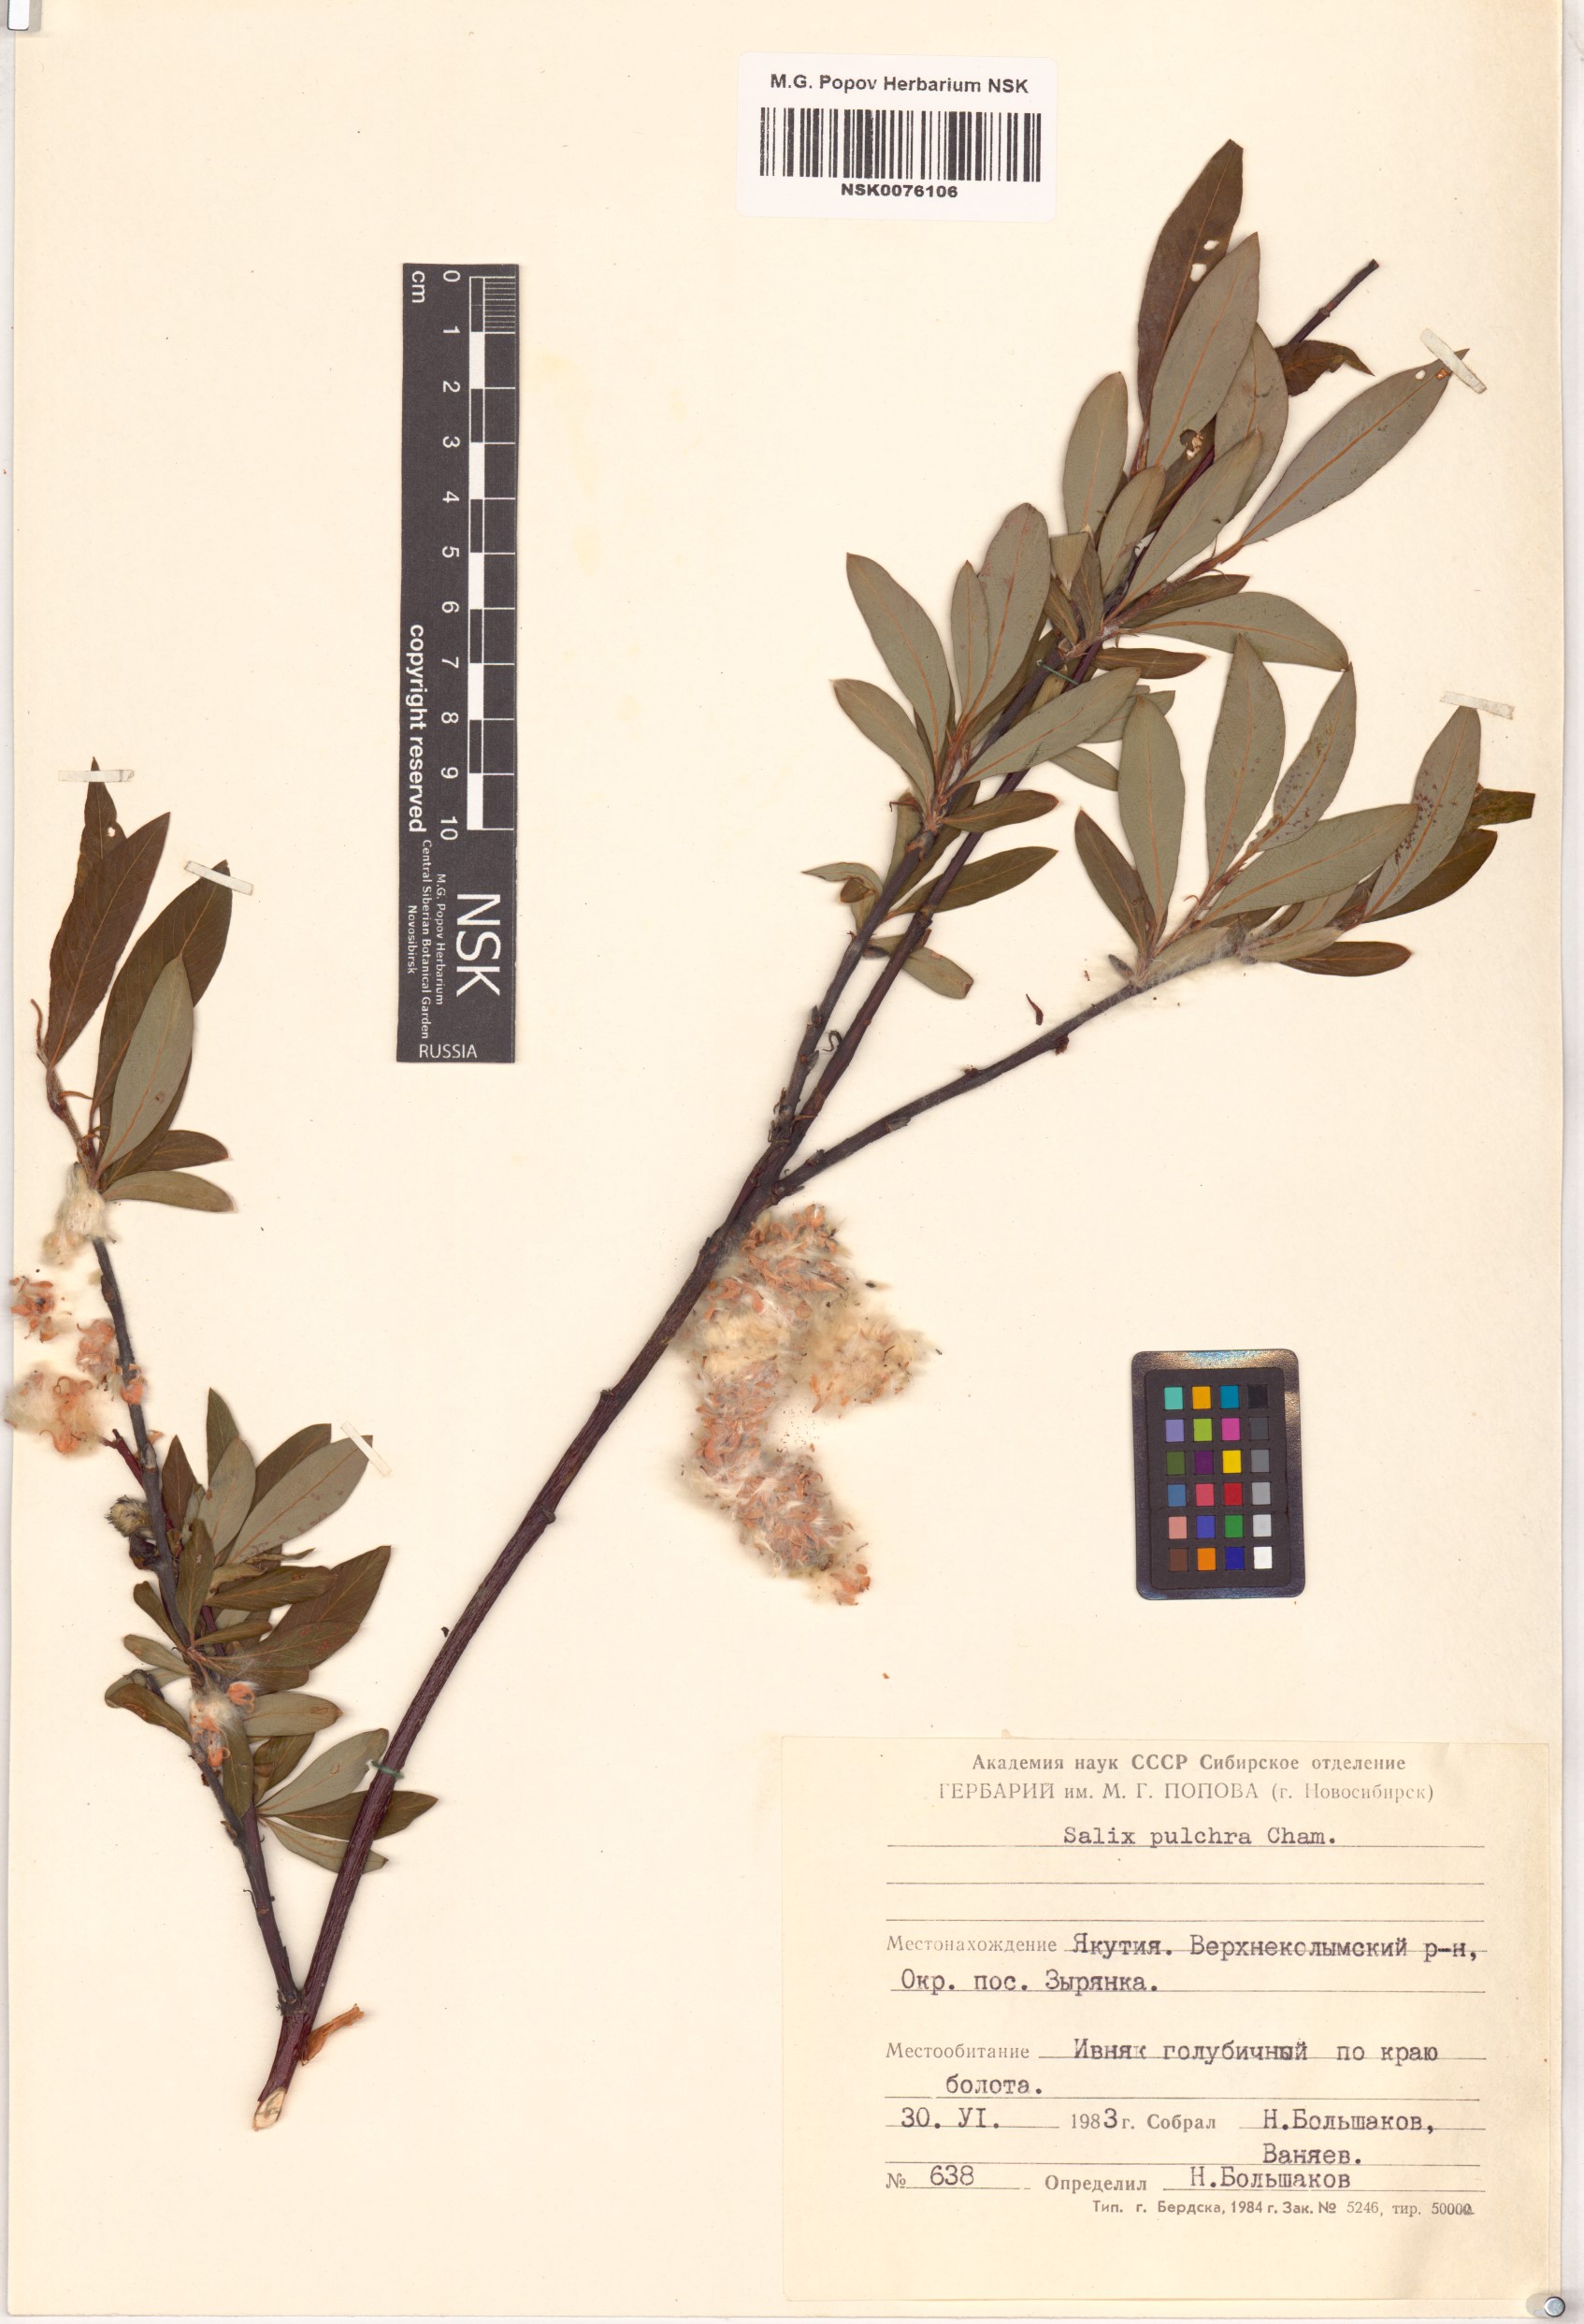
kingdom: Plantae
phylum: Tracheophyta
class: Magnoliopsida
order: Malpighiales
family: Salicaceae
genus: Salix
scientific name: Salix pulchra
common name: Diamond-leaved willow
